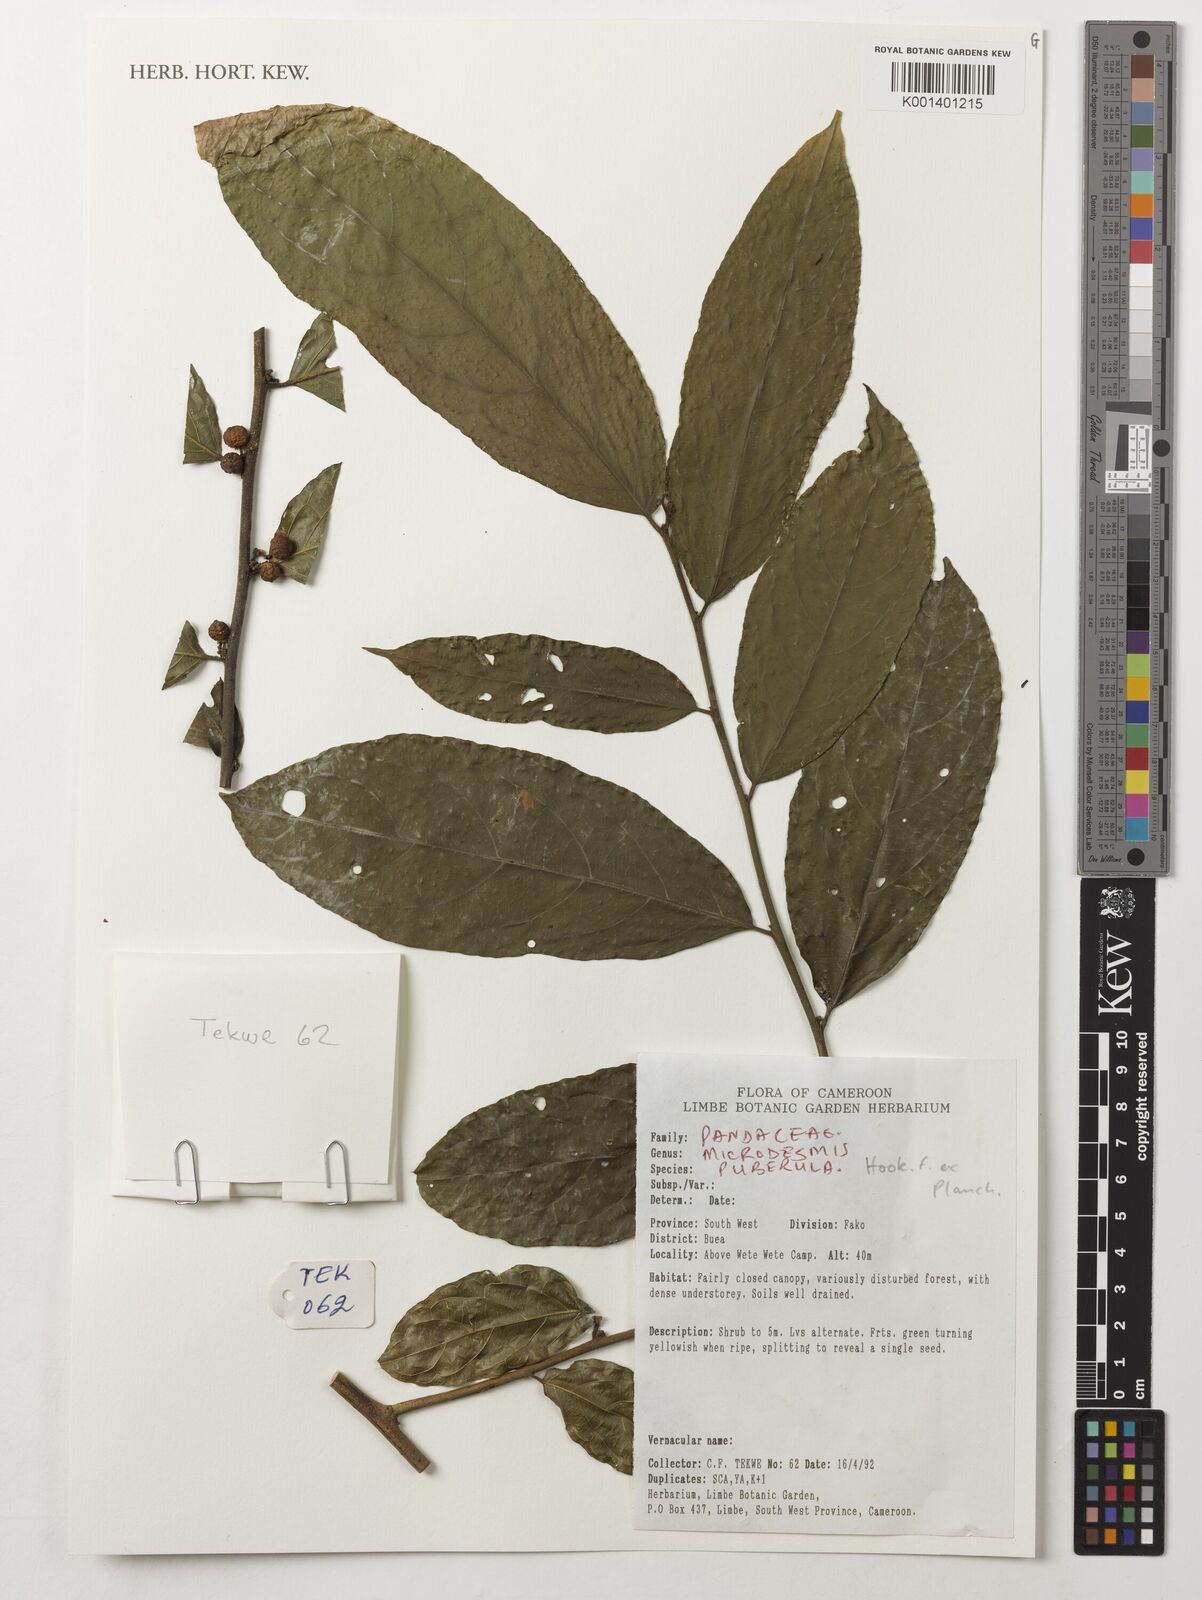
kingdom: Plantae
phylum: Tracheophyta
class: Magnoliopsida
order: Malpighiales
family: Pandaceae
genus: Microdesmis
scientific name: Microdesmis puberula
